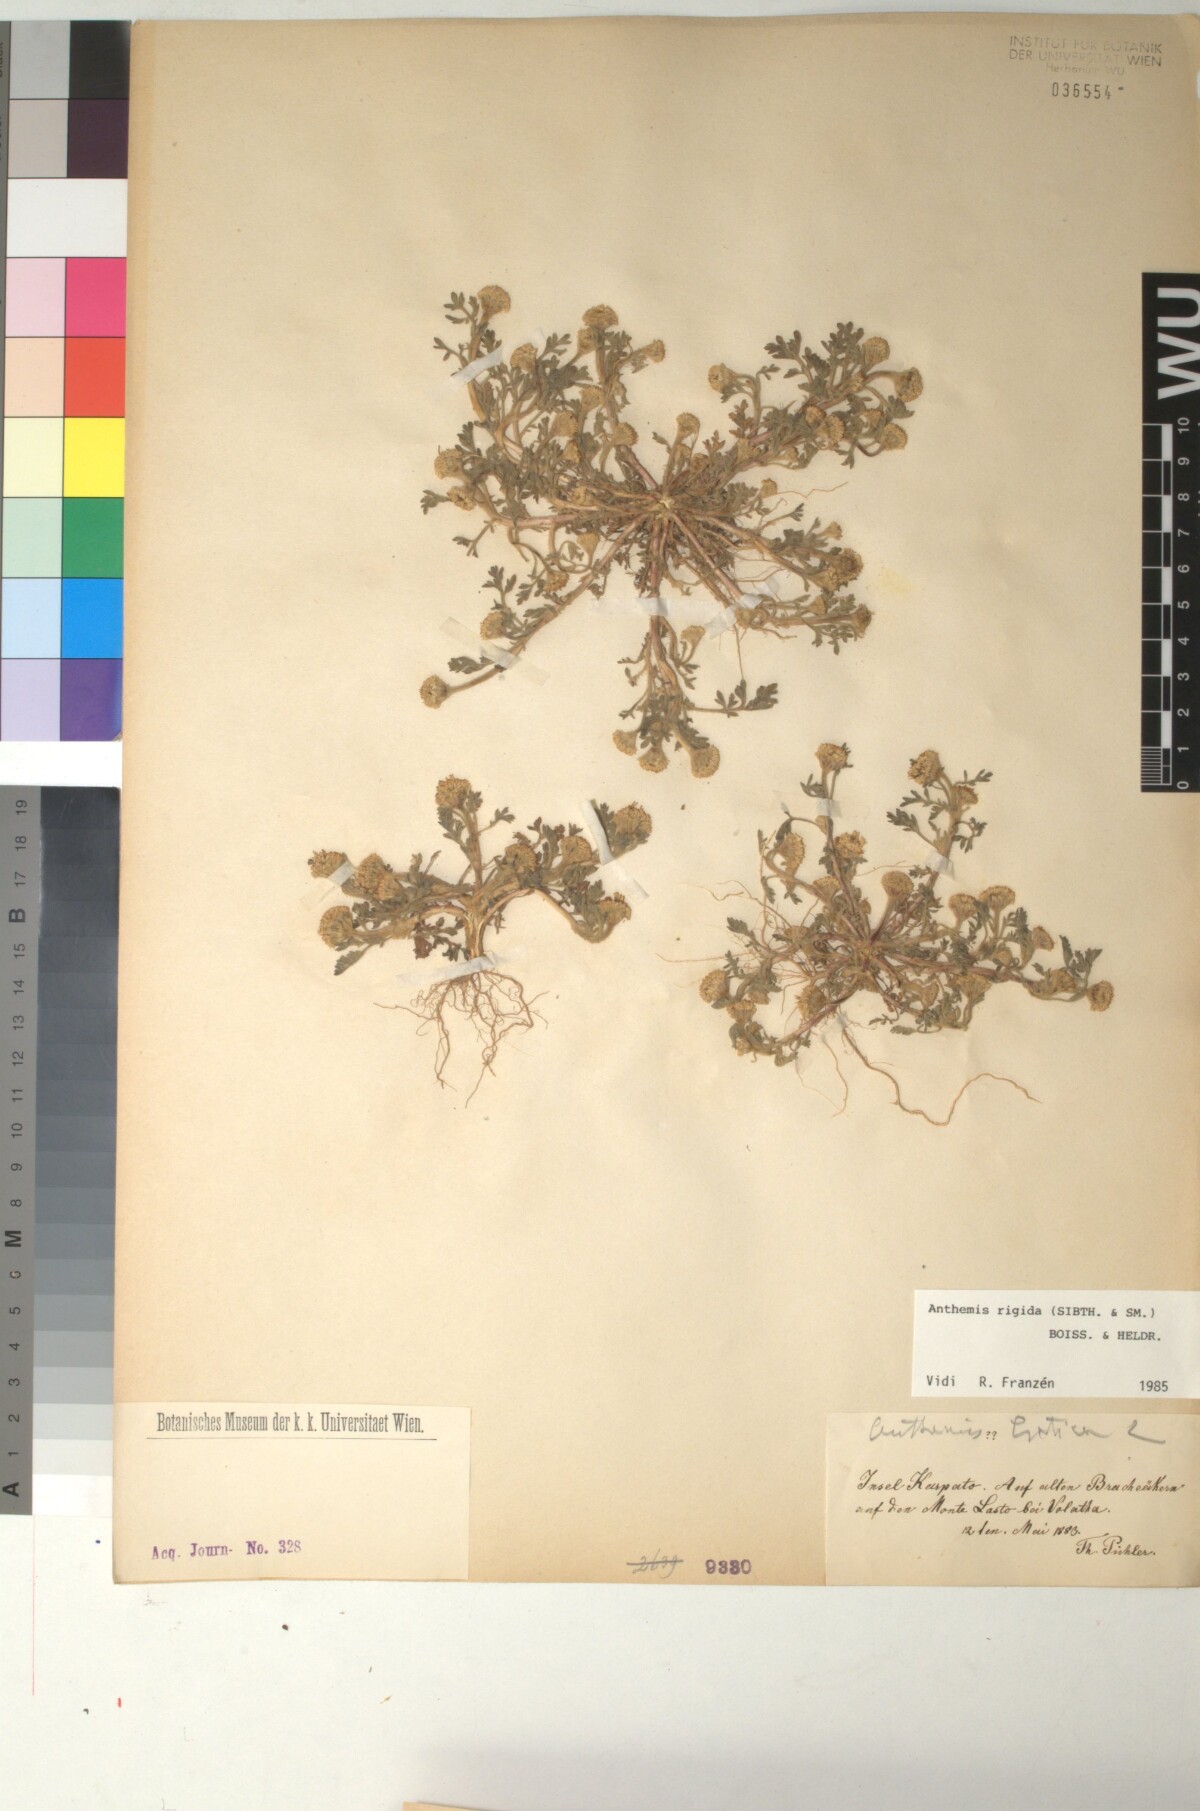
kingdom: Plantae
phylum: Tracheophyta
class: Magnoliopsida
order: Asterales
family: Asteraceae
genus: Anthemis
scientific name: Anthemis rigida
